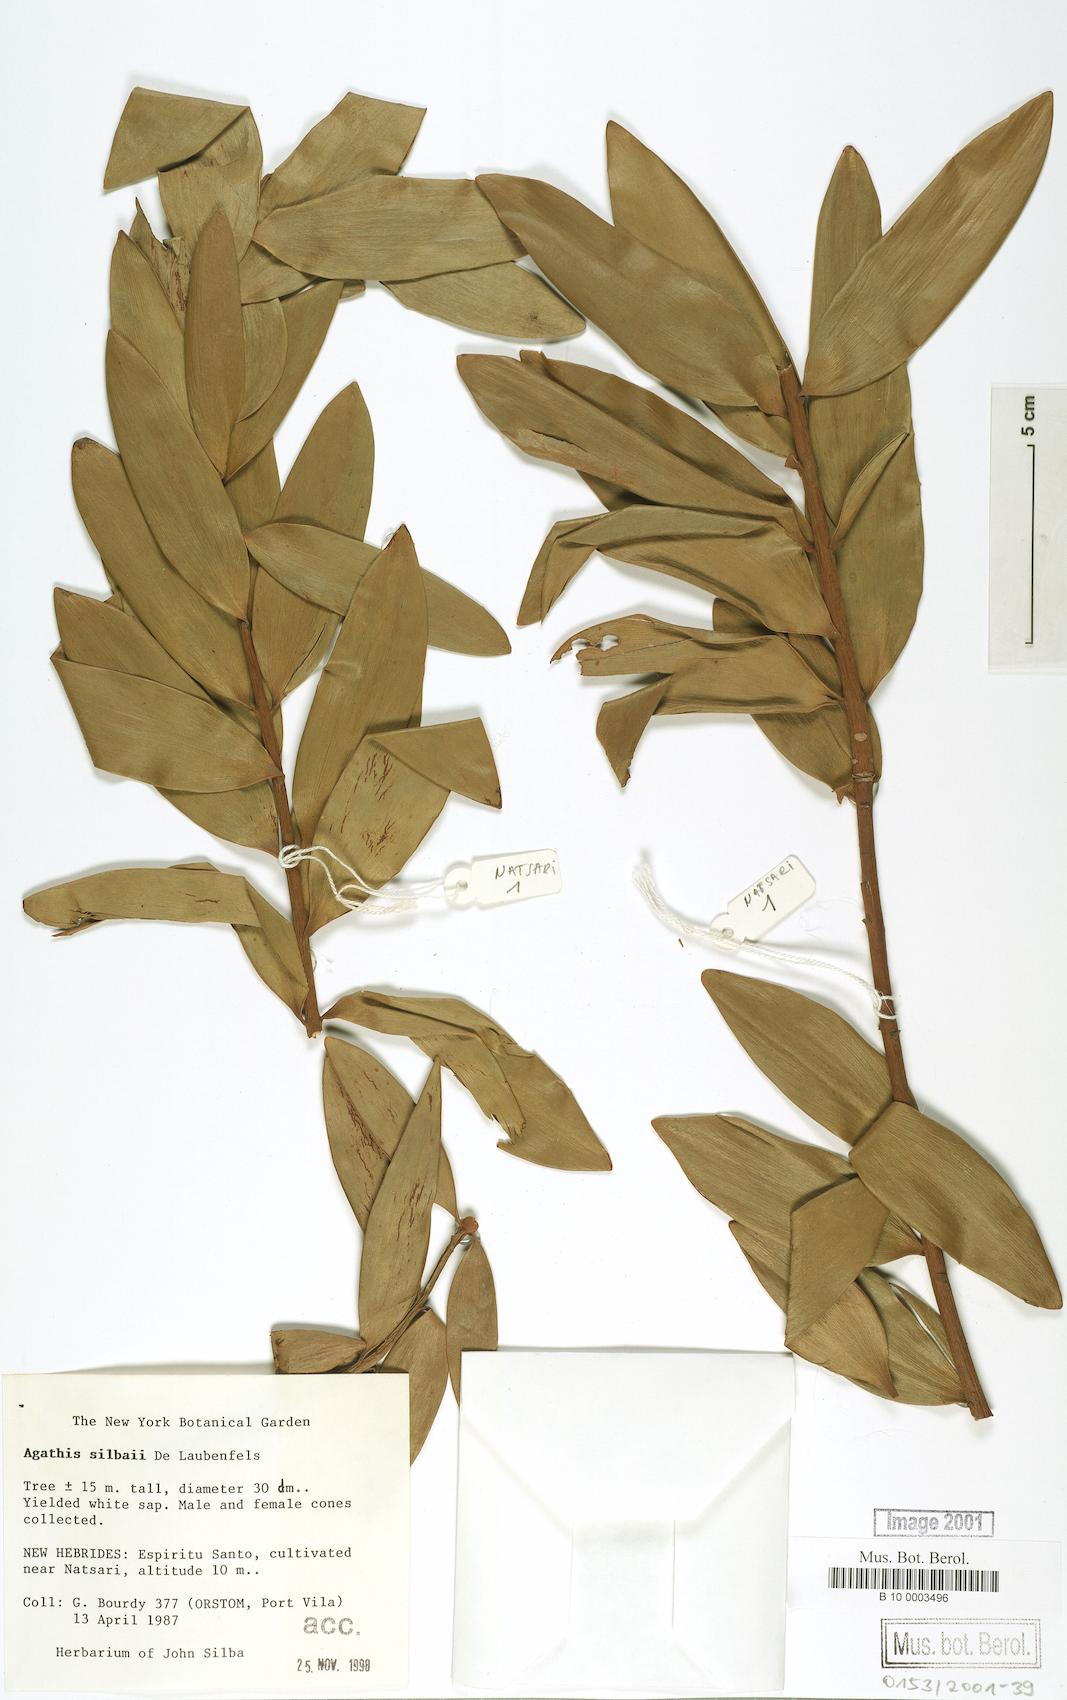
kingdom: Plantae
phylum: Tracheophyta
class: Pinopsida
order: Pinales
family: Araucariaceae
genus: Agathis
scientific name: Agathis silbae
